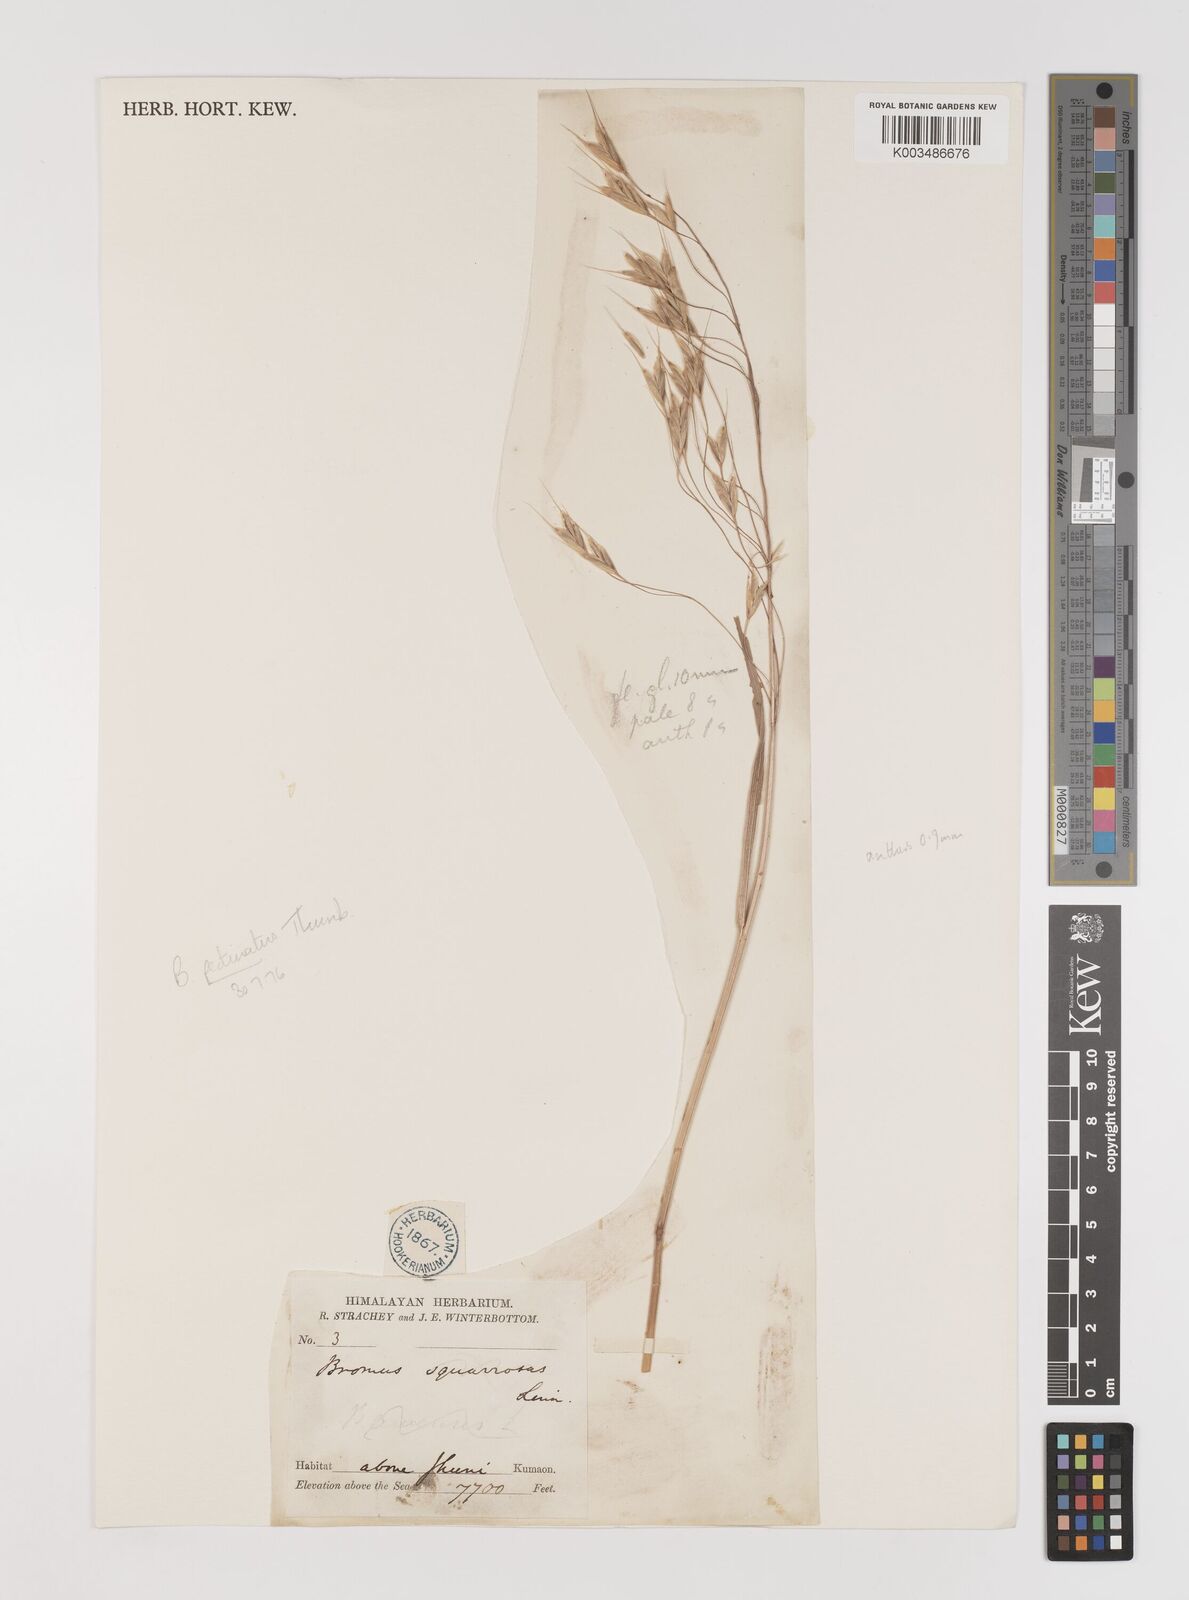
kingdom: Plantae
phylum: Tracheophyta
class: Liliopsida
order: Poales
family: Poaceae
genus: Bromus
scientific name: Bromus pectinatus
